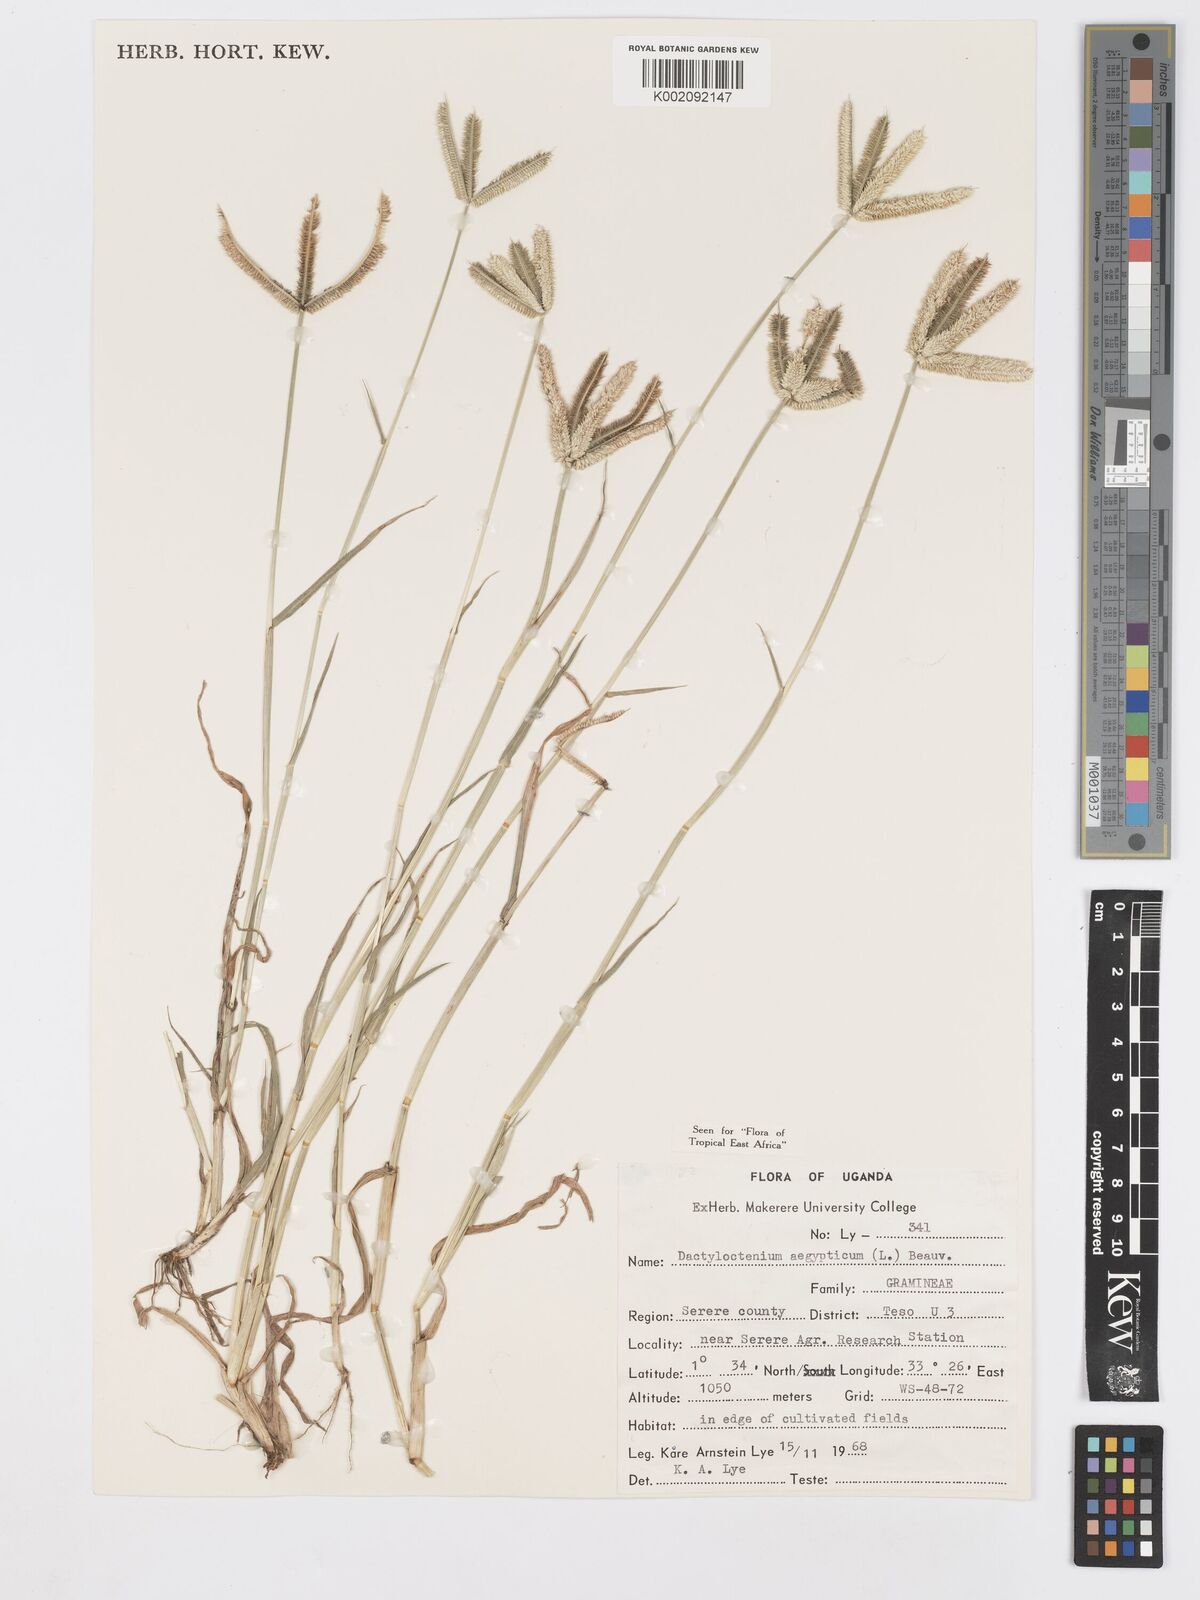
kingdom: Plantae
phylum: Tracheophyta
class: Liliopsida
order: Poales
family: Poaceae
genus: Dactyloctenium
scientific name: Dactyloctenium aegyptium
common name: Egyptian grass
